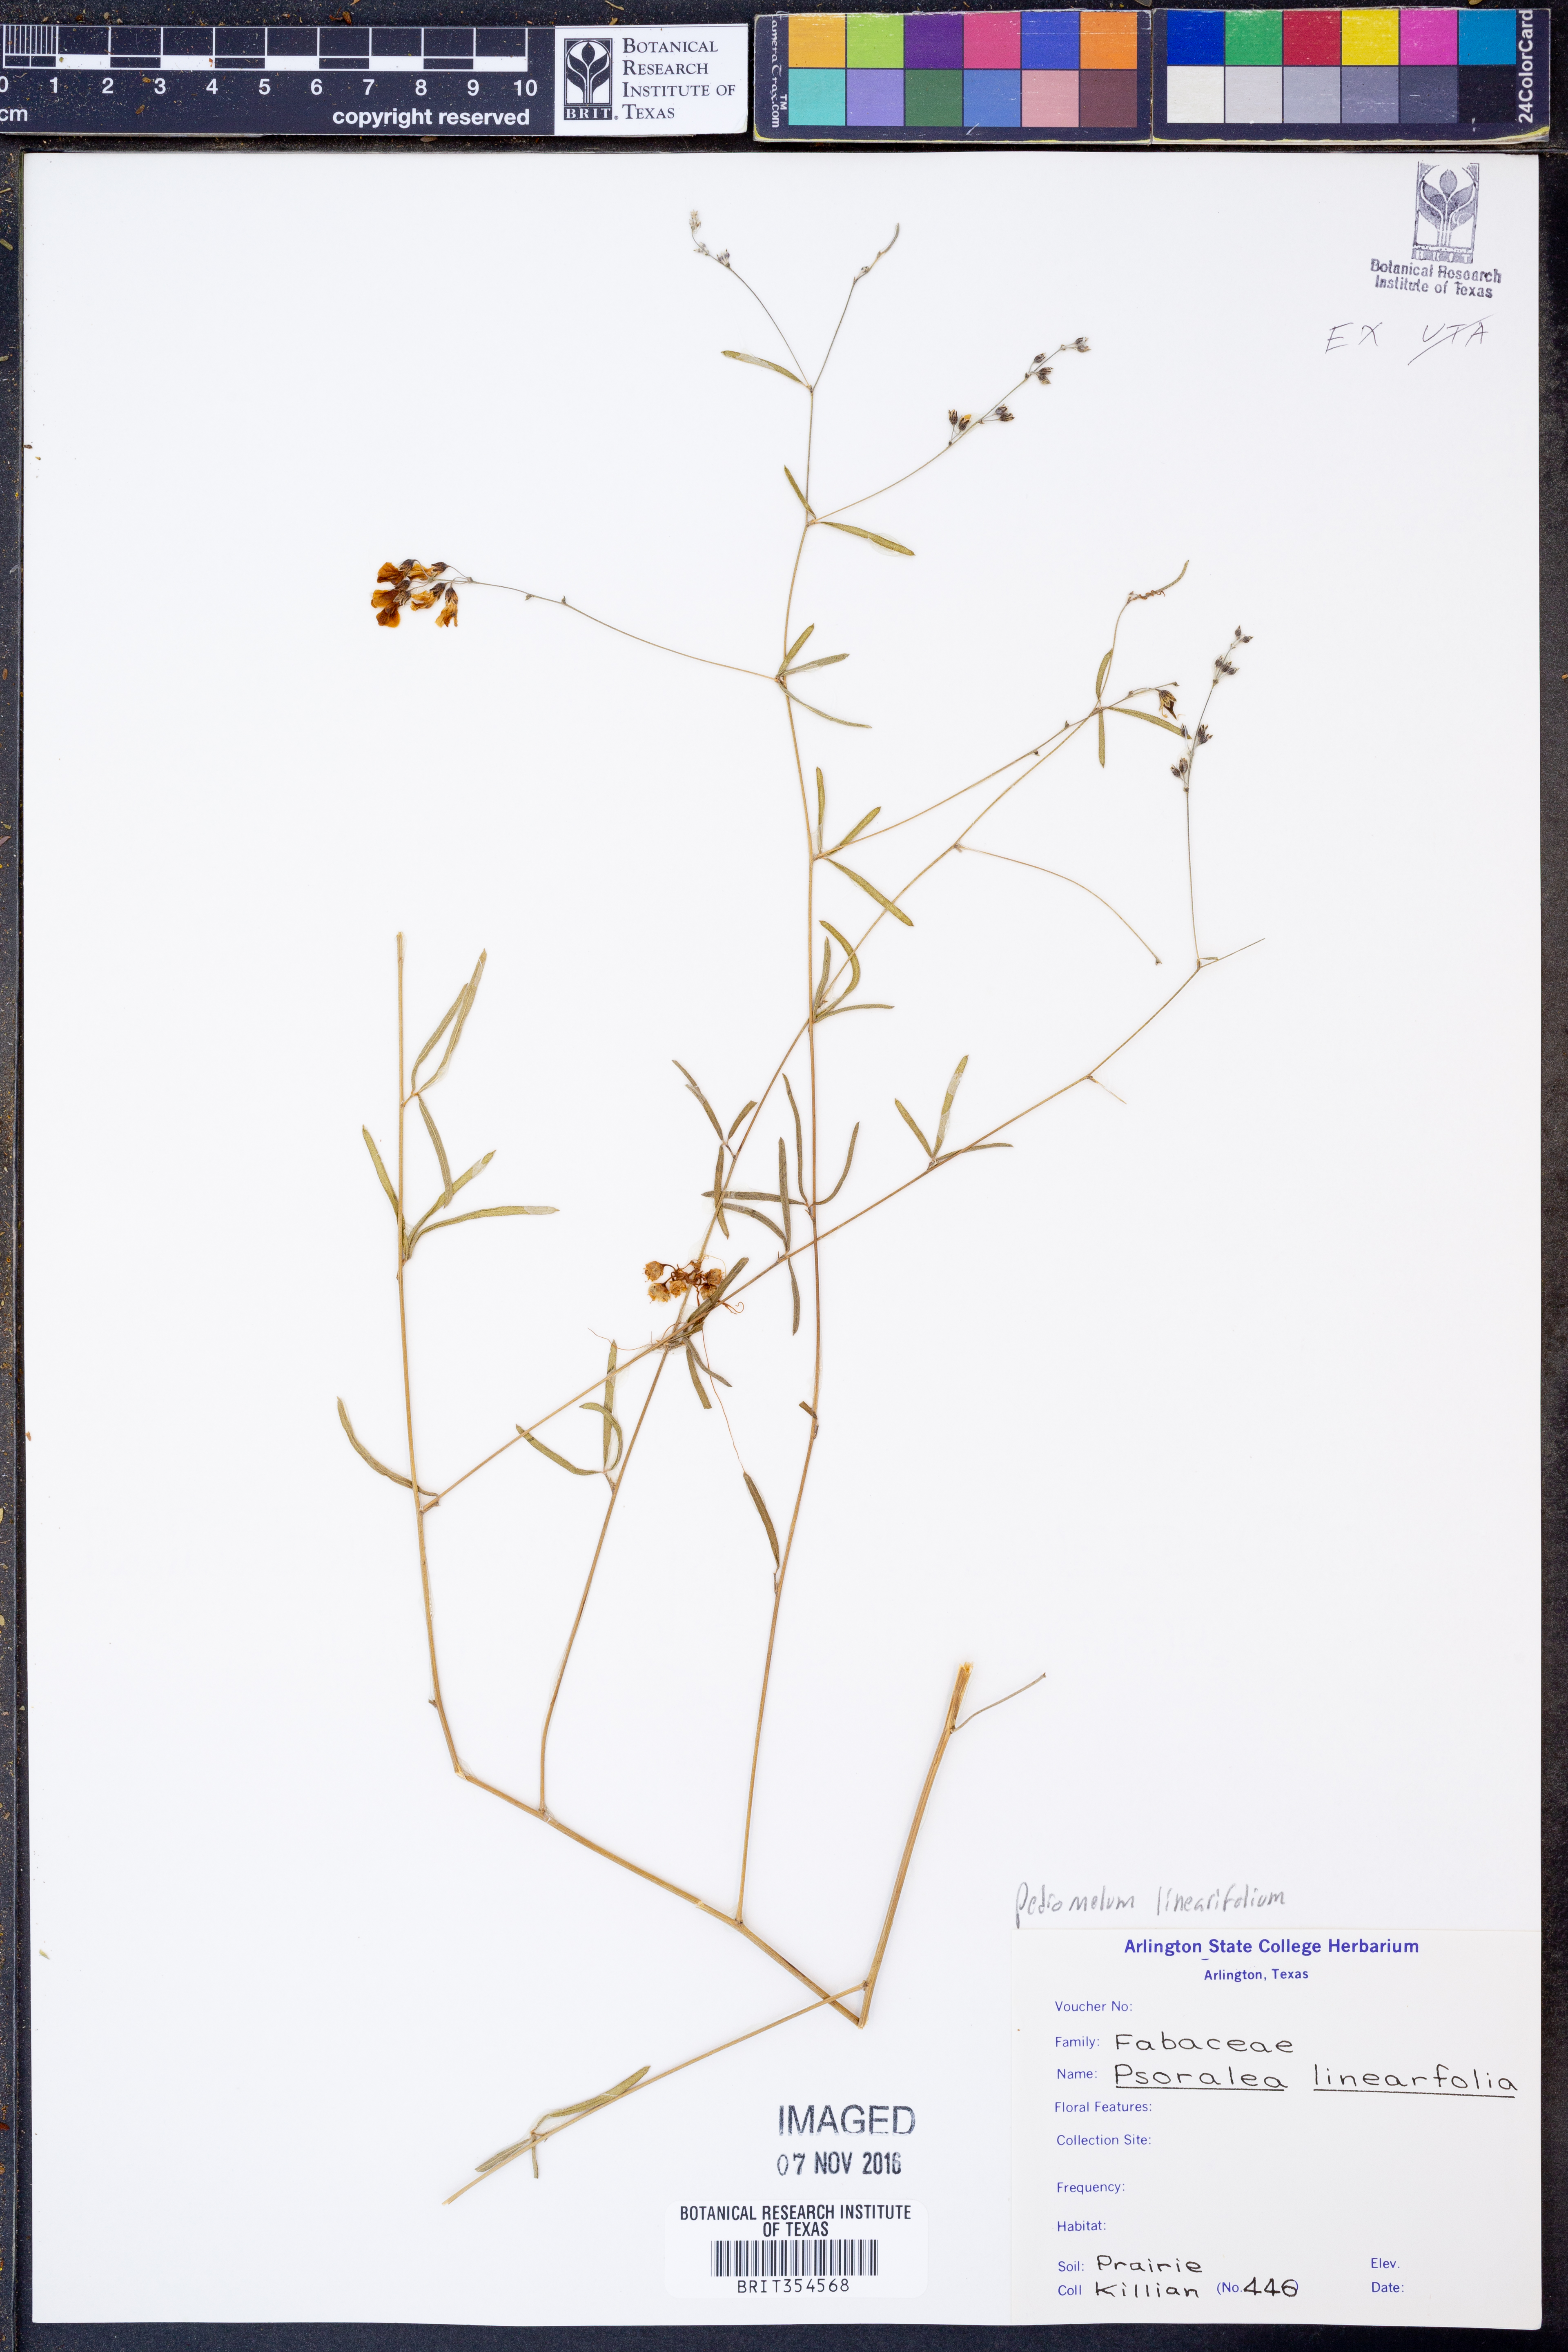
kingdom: Plantae
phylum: Tracheophyta
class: Magnoliopsida
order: Fabales
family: Fabaceae
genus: Pediomelum
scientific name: Pediomelum linearifolium
